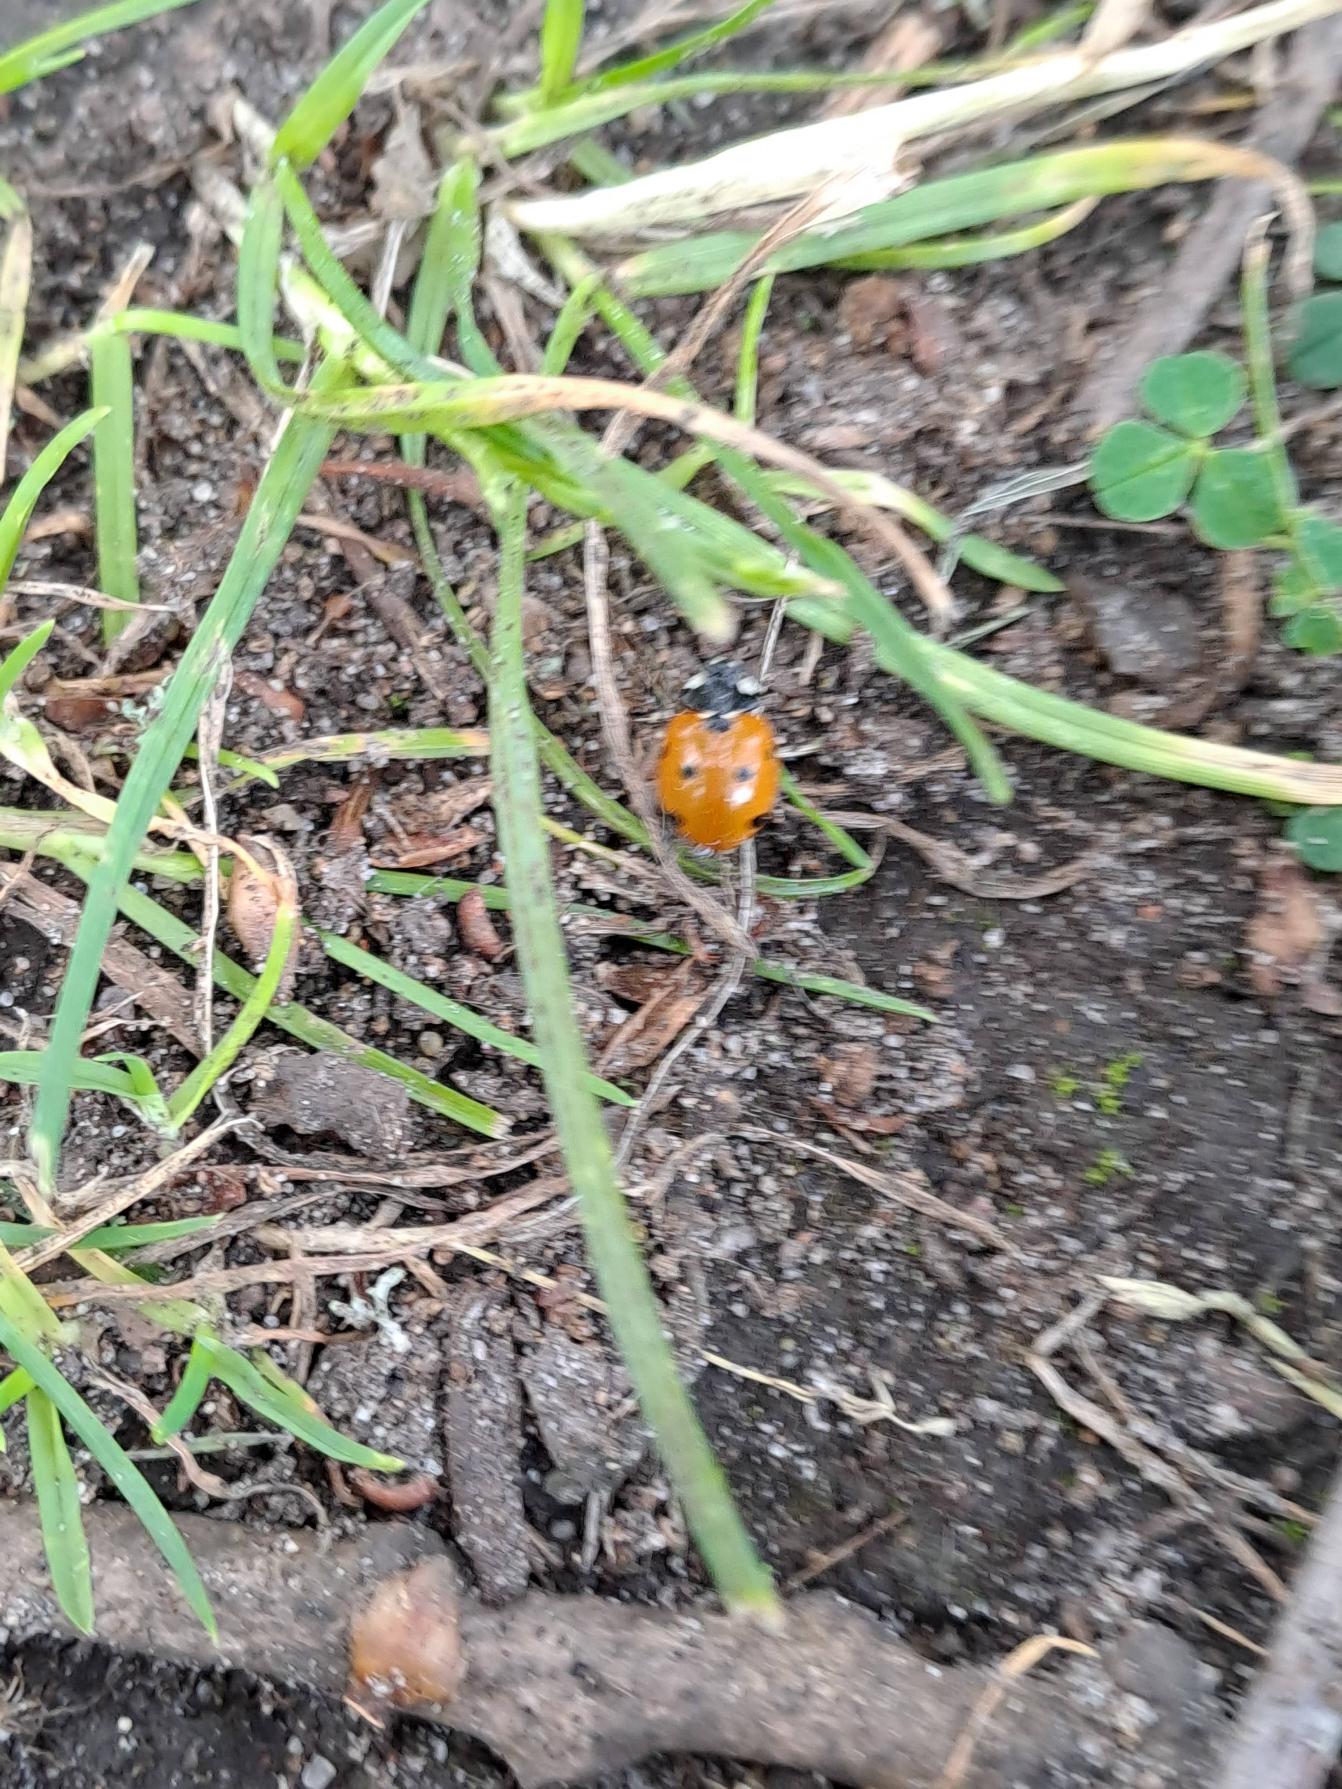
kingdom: Animalia
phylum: Arthropoda
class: Insecta
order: Coleoptera
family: Coccinellidae
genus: Coccinella
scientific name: Coccinella septempunctata
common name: Syvplettet mariehøne
